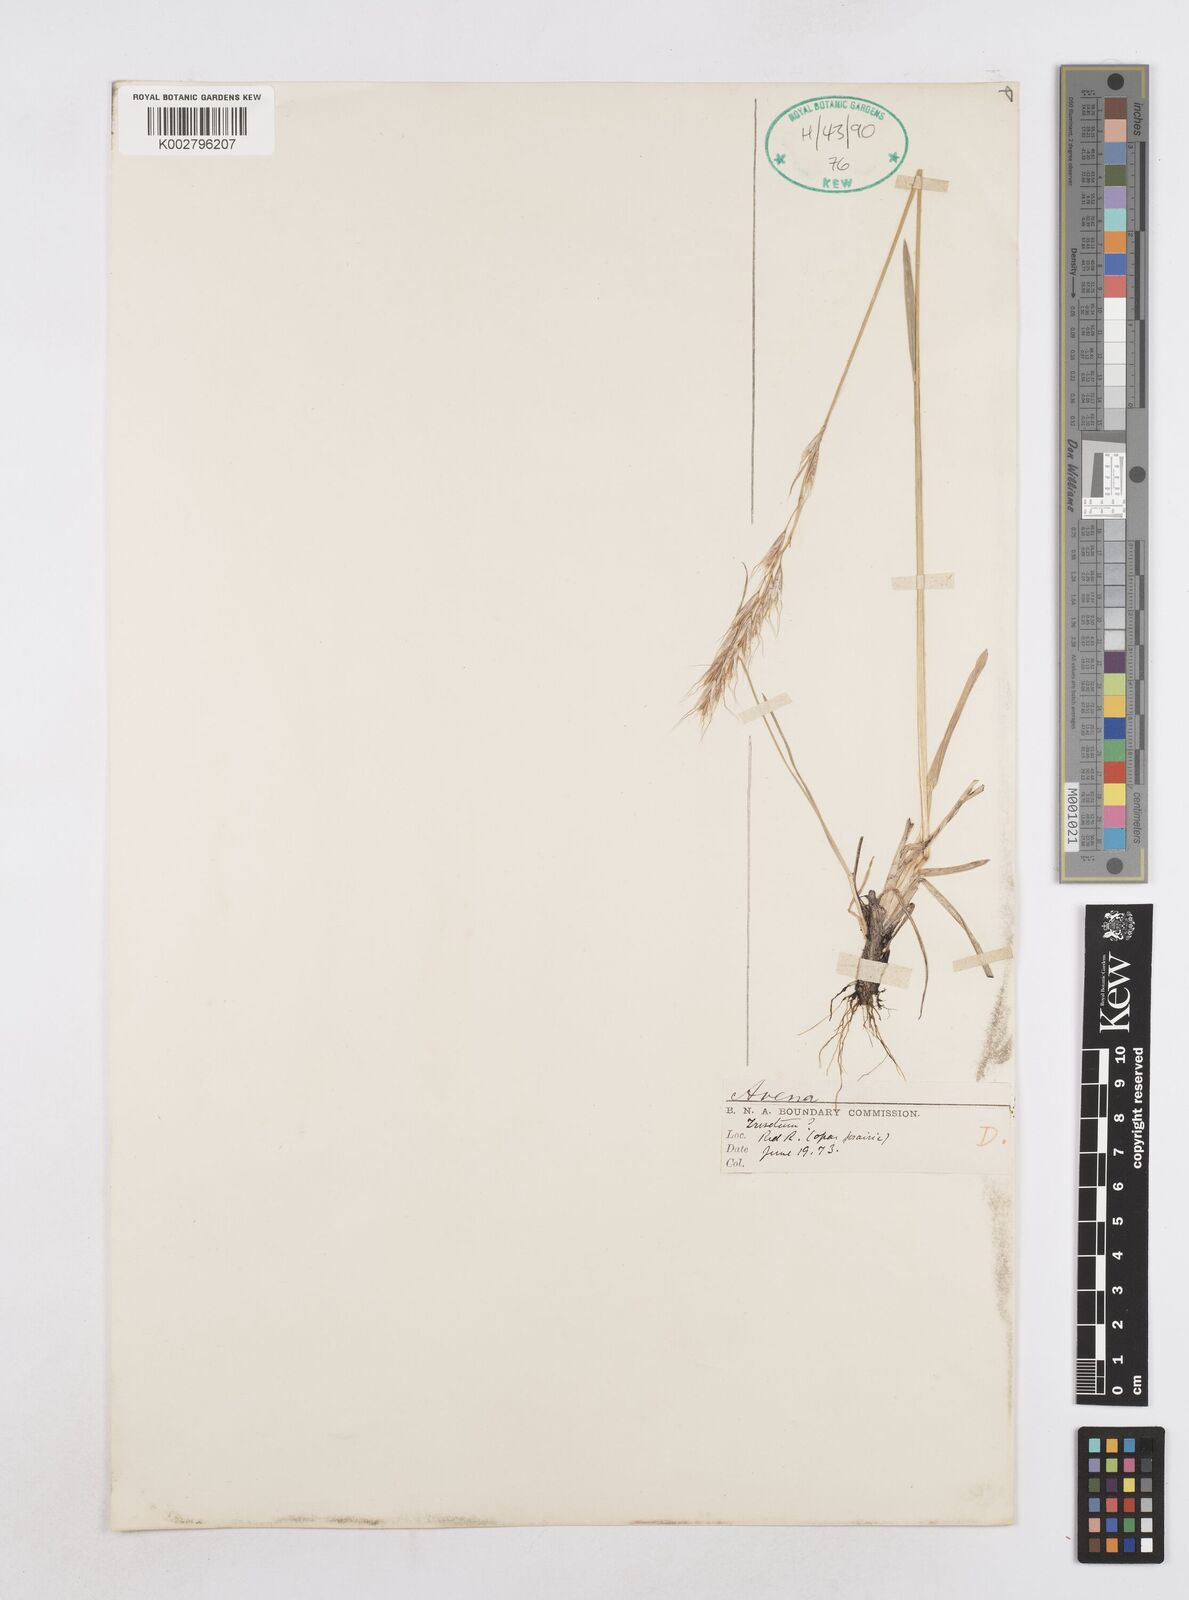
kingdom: Plantae
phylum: Tracheophyta
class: Liliopsida
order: Poales
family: Poaceae
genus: Helictotrichon
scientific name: Helictotrichon
